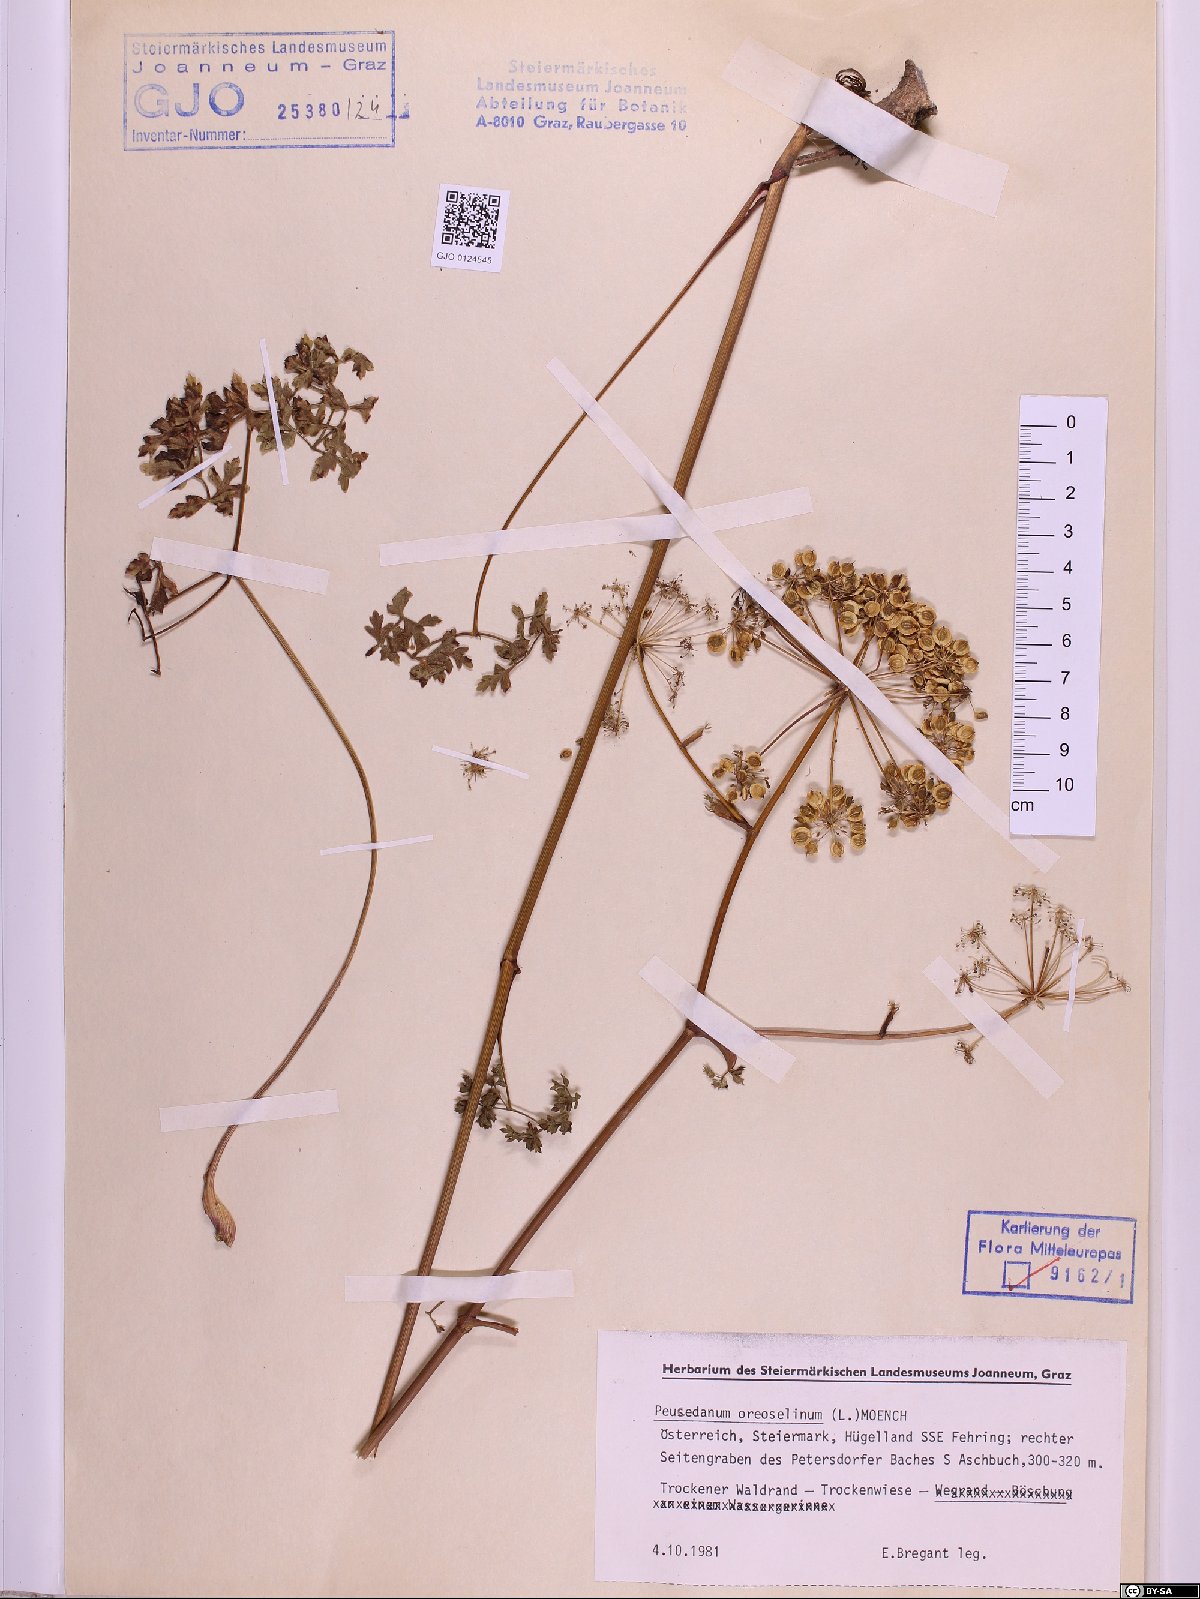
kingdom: Plantae
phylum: Tracheophyta
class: Magnoliopsida
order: Apiales
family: Apiaceae
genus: Oreoselinum
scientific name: Oreoselinum nigrum
